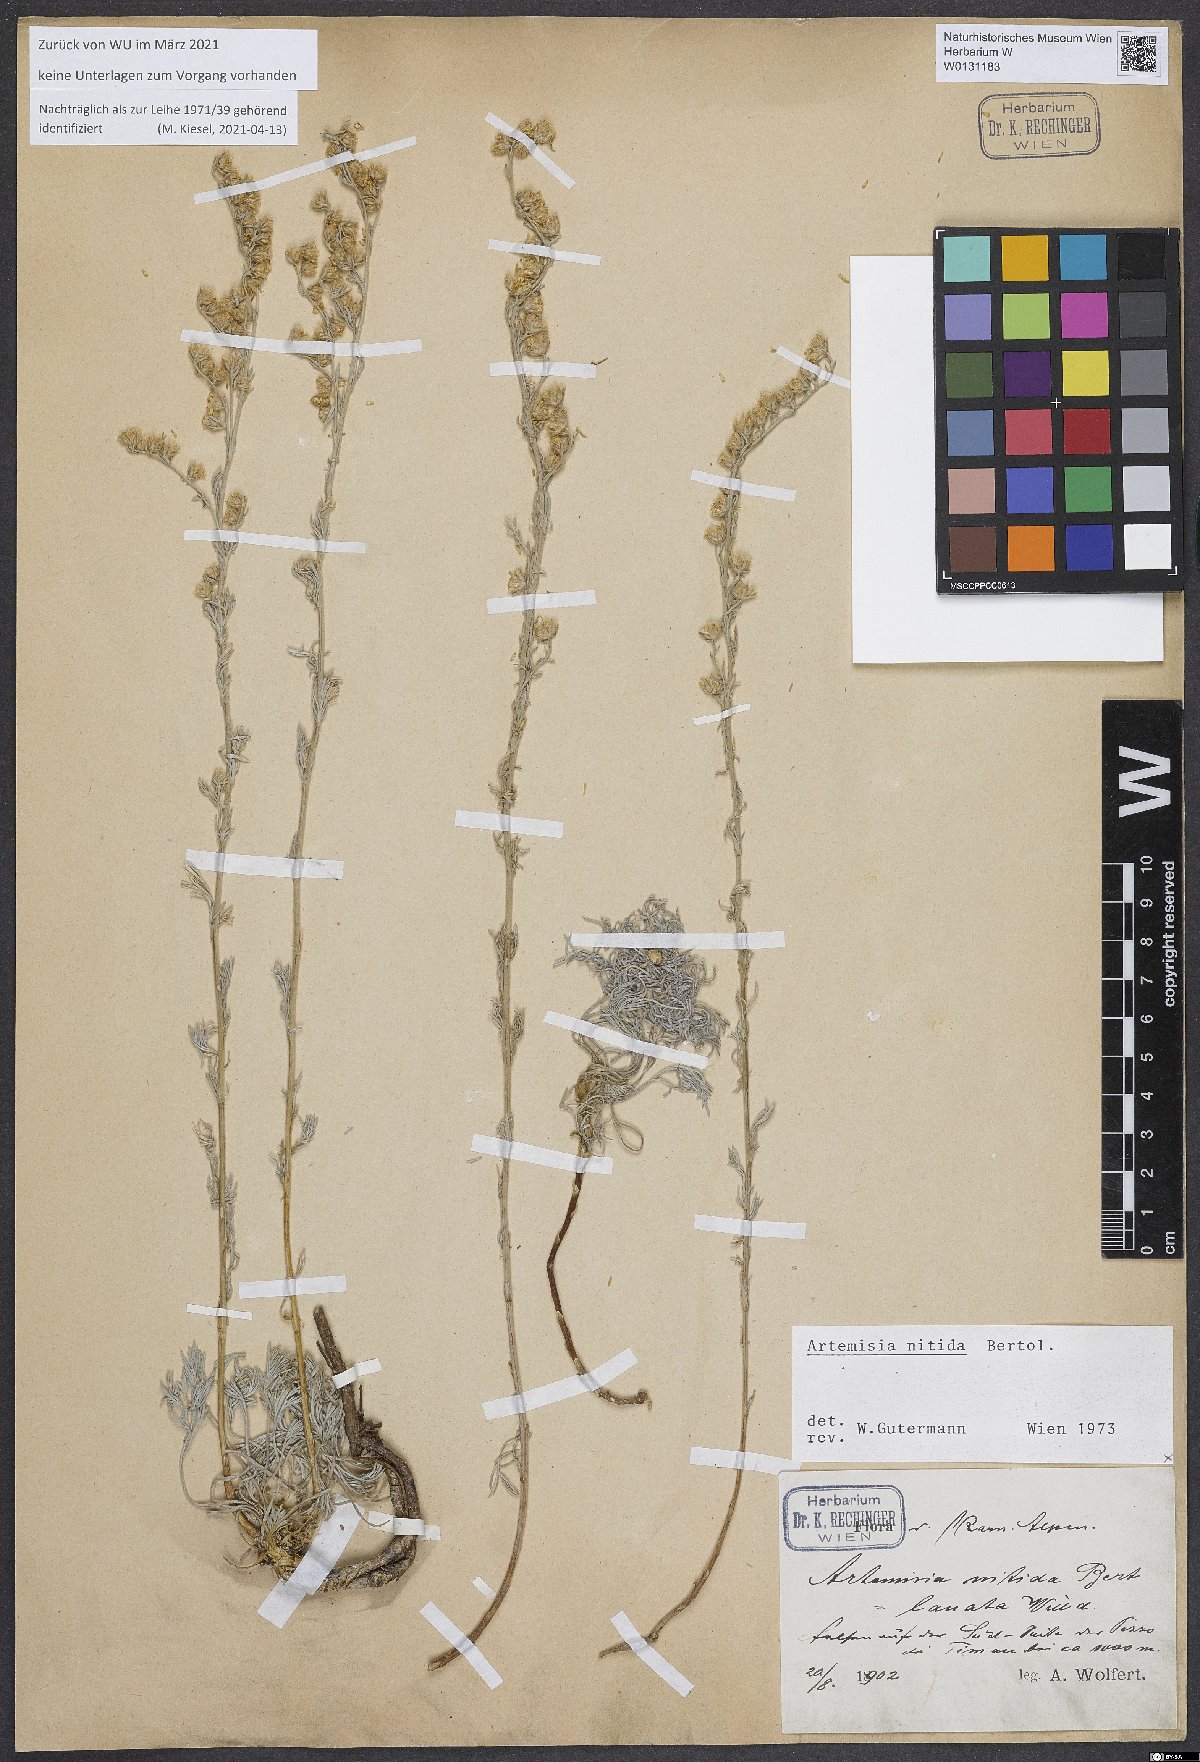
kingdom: Plantae
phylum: Tracheophyta
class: Magnoliopsida
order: Asterales
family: Asteraceae
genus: Artemisia
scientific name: Artemisia nitida
